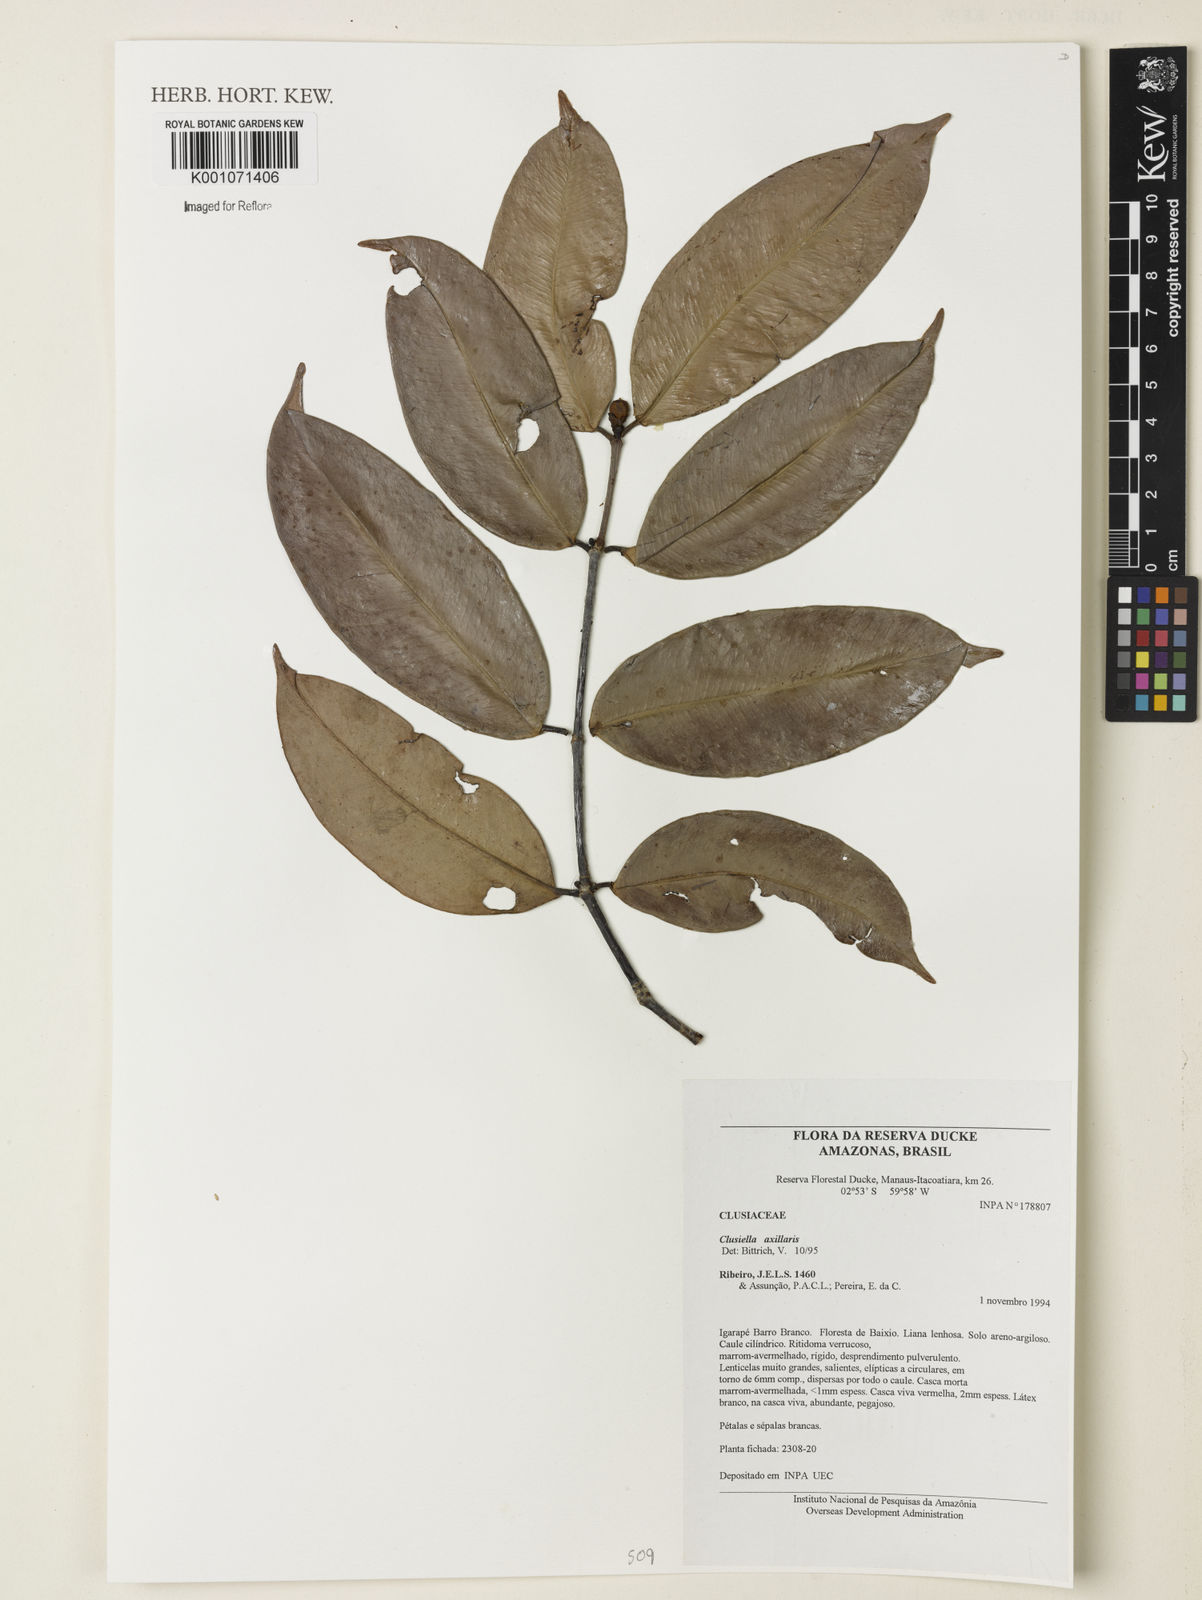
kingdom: Plantae
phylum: Tracheophyta
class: Magnoliopsida
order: Malpighiales
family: Calophyllaceae
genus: Clusiella
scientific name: Clusiella axillaris
